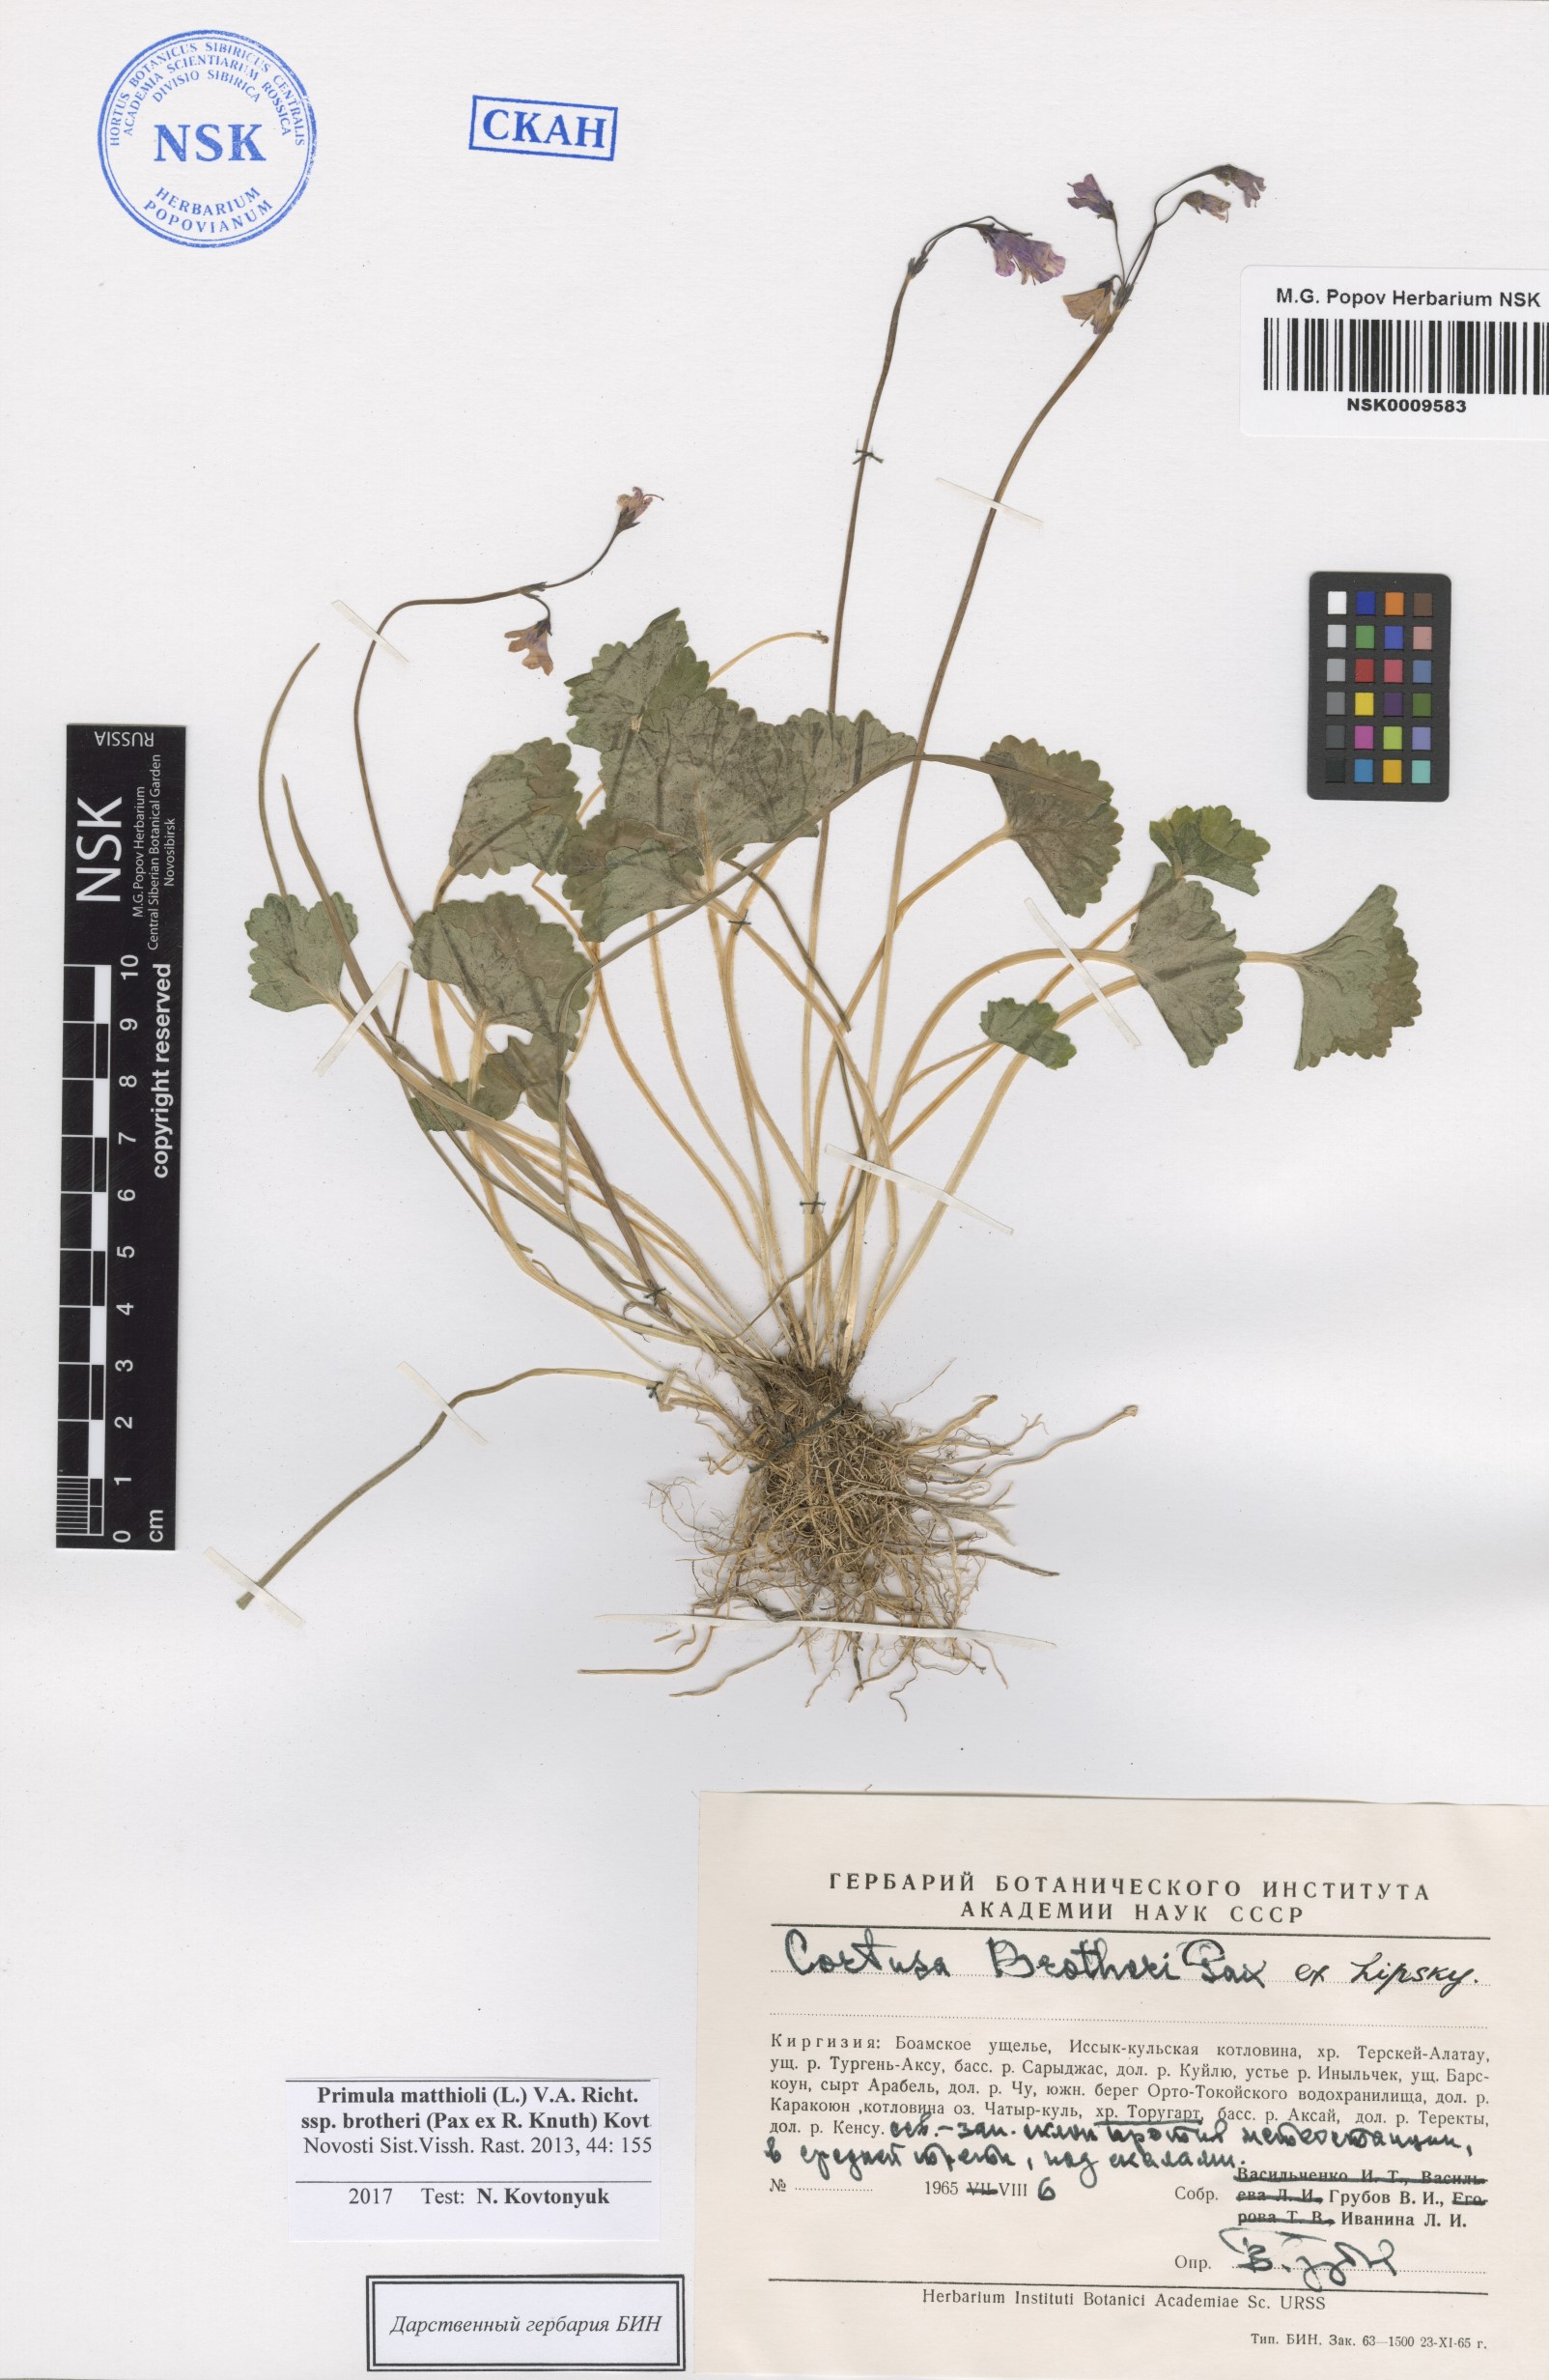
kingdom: Plantae
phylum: Tracheophyta
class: Magnoliopsida
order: Ericales
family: Primulaceae
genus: Primula
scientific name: Primula matthioli
